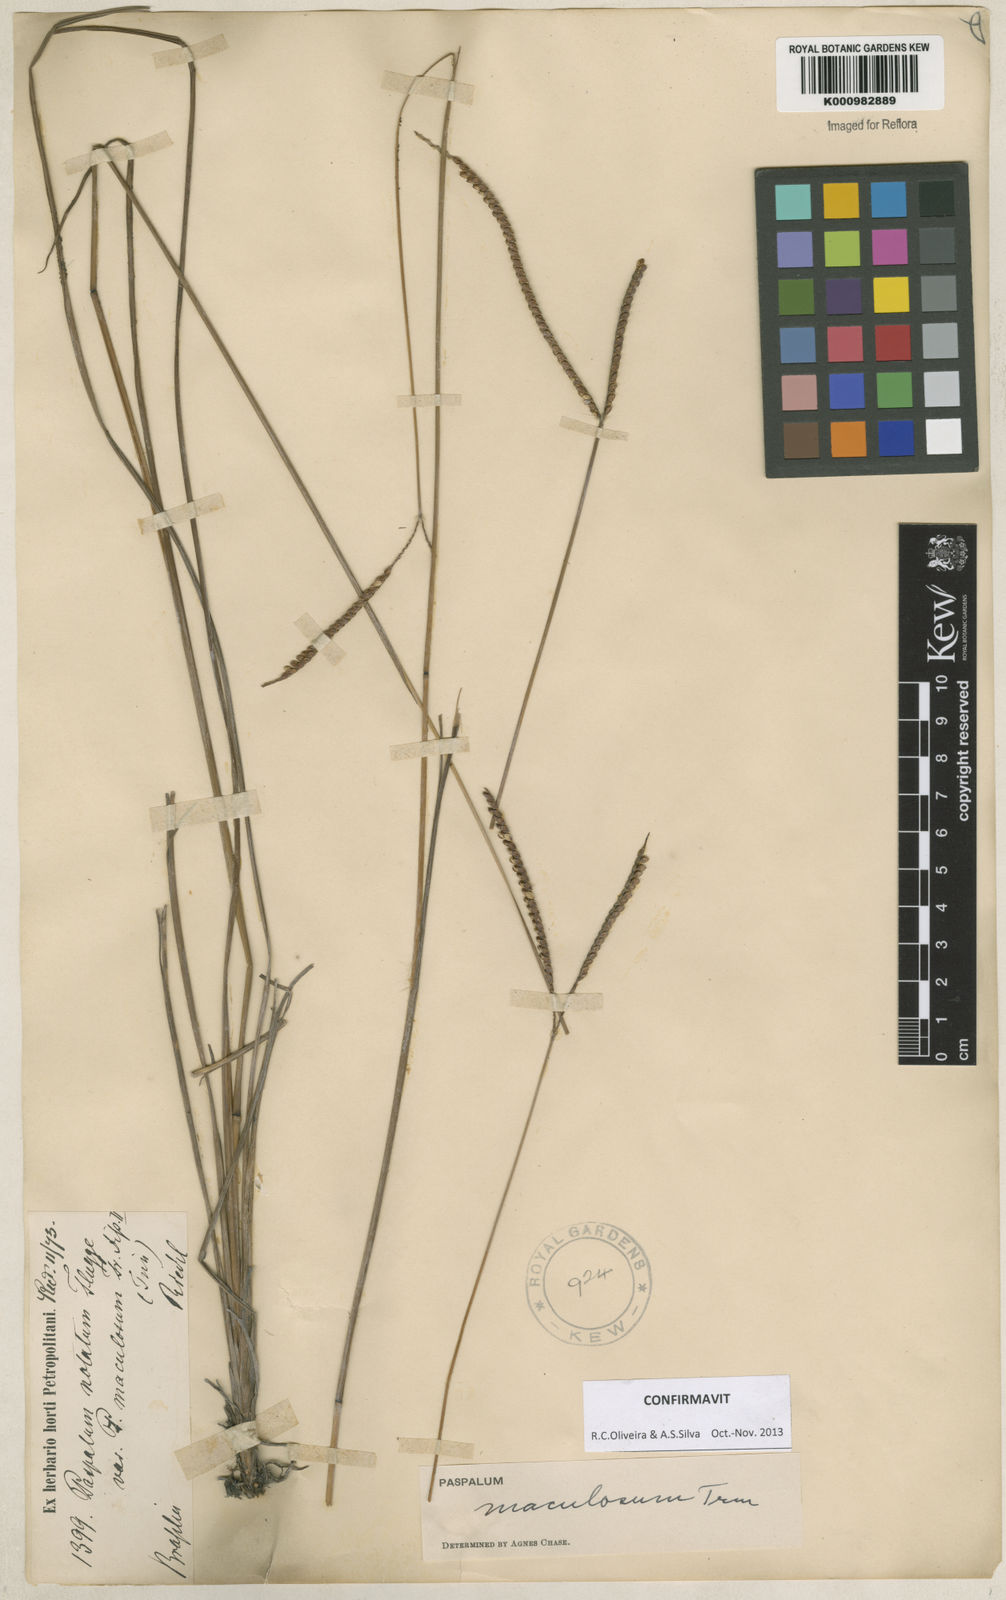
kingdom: Plantae
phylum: Tracheophyta
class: Liliopsida
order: Poales
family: Poaceae
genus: Paspalum
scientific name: Paspalum maculosum
